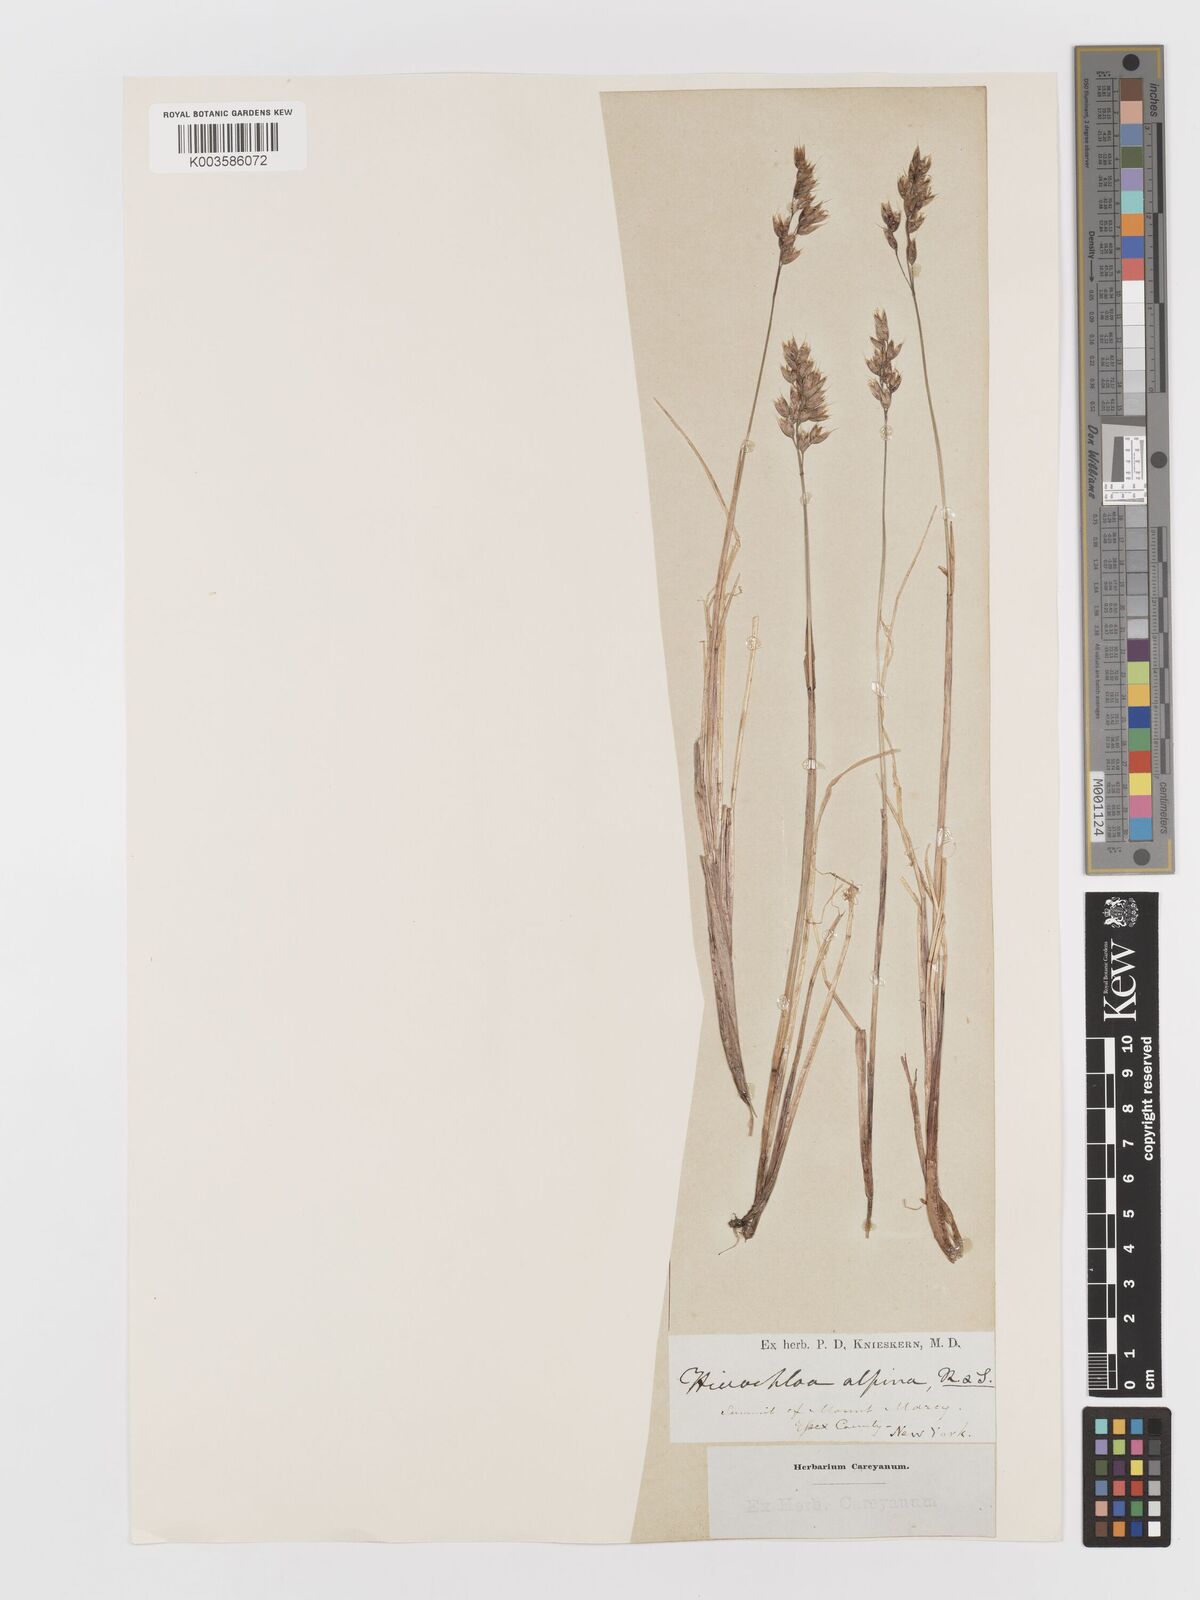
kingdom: Plantae
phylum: Tracheophyta
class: Liliopsida
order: Poales
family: Poaceae
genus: Anthoxanthum
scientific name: Anthoxanthum monticola
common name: Alpine sweetgrass
